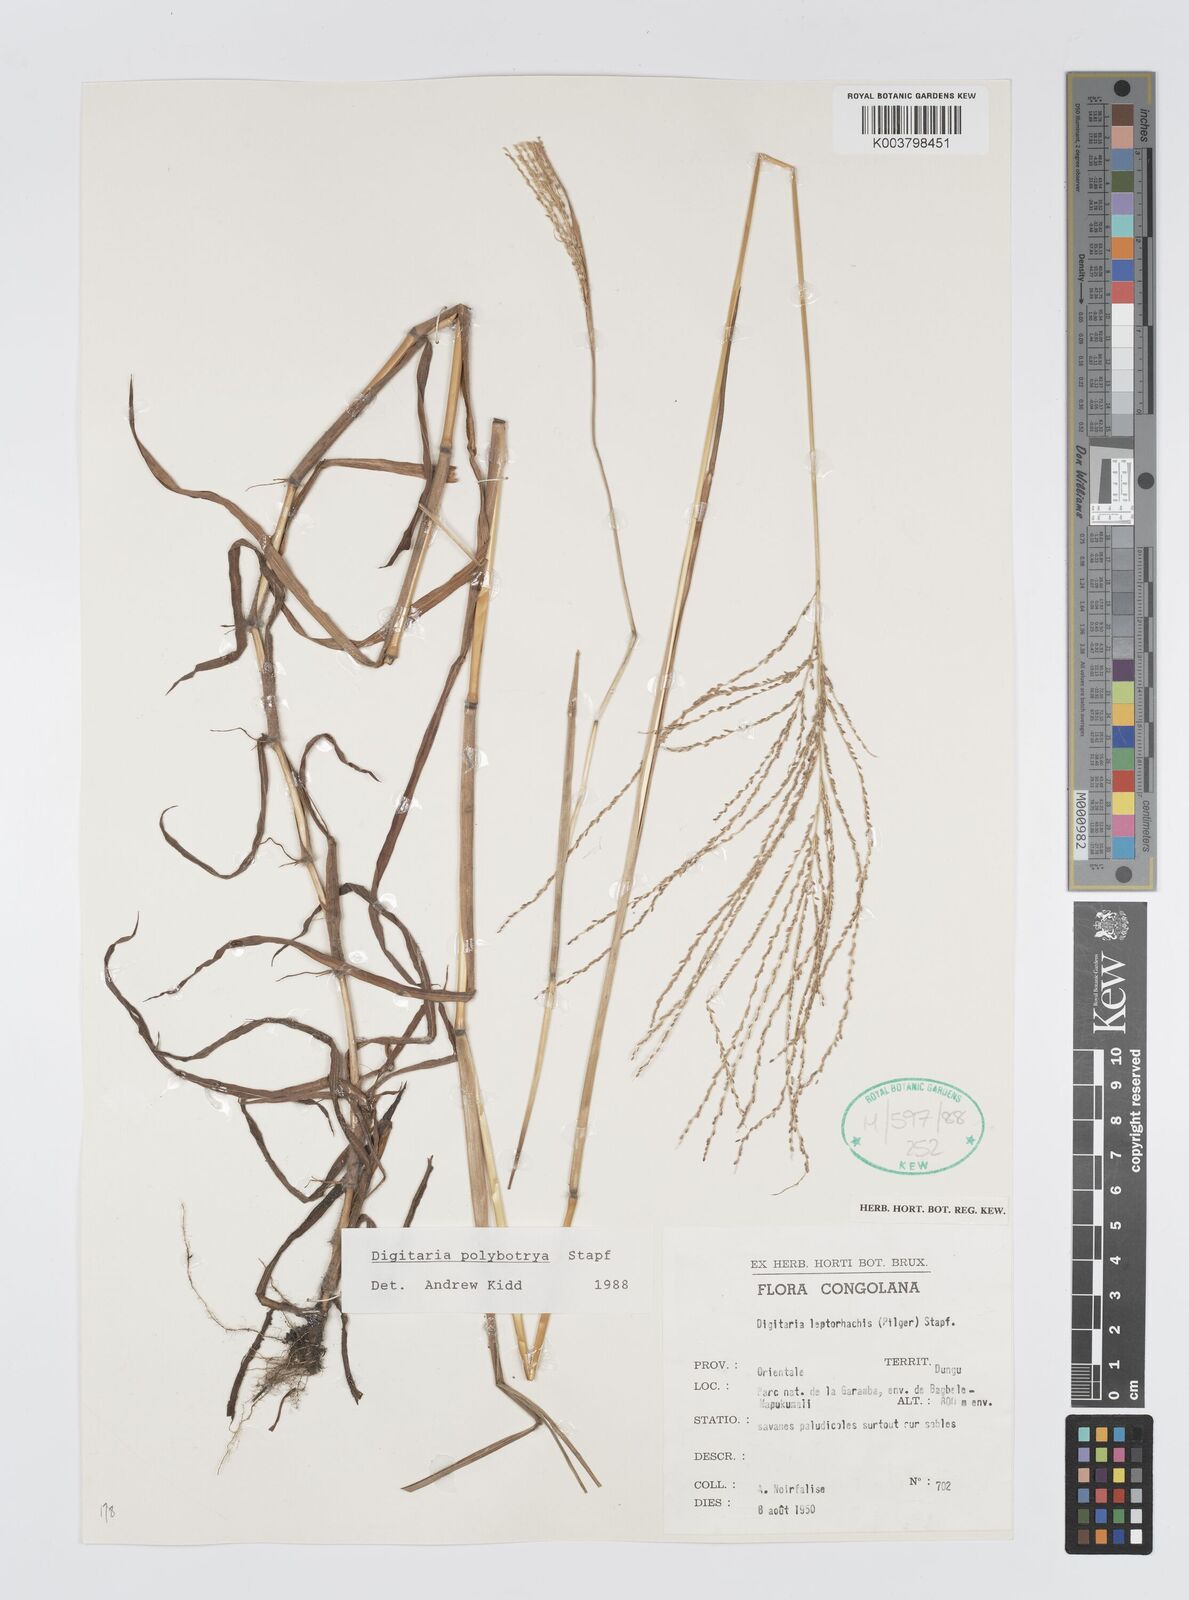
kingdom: Plantae
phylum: Tracheophyta
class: Liliopsida
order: Poales
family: Poaceae
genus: Digitaria
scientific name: Digitaria leptorhachis
